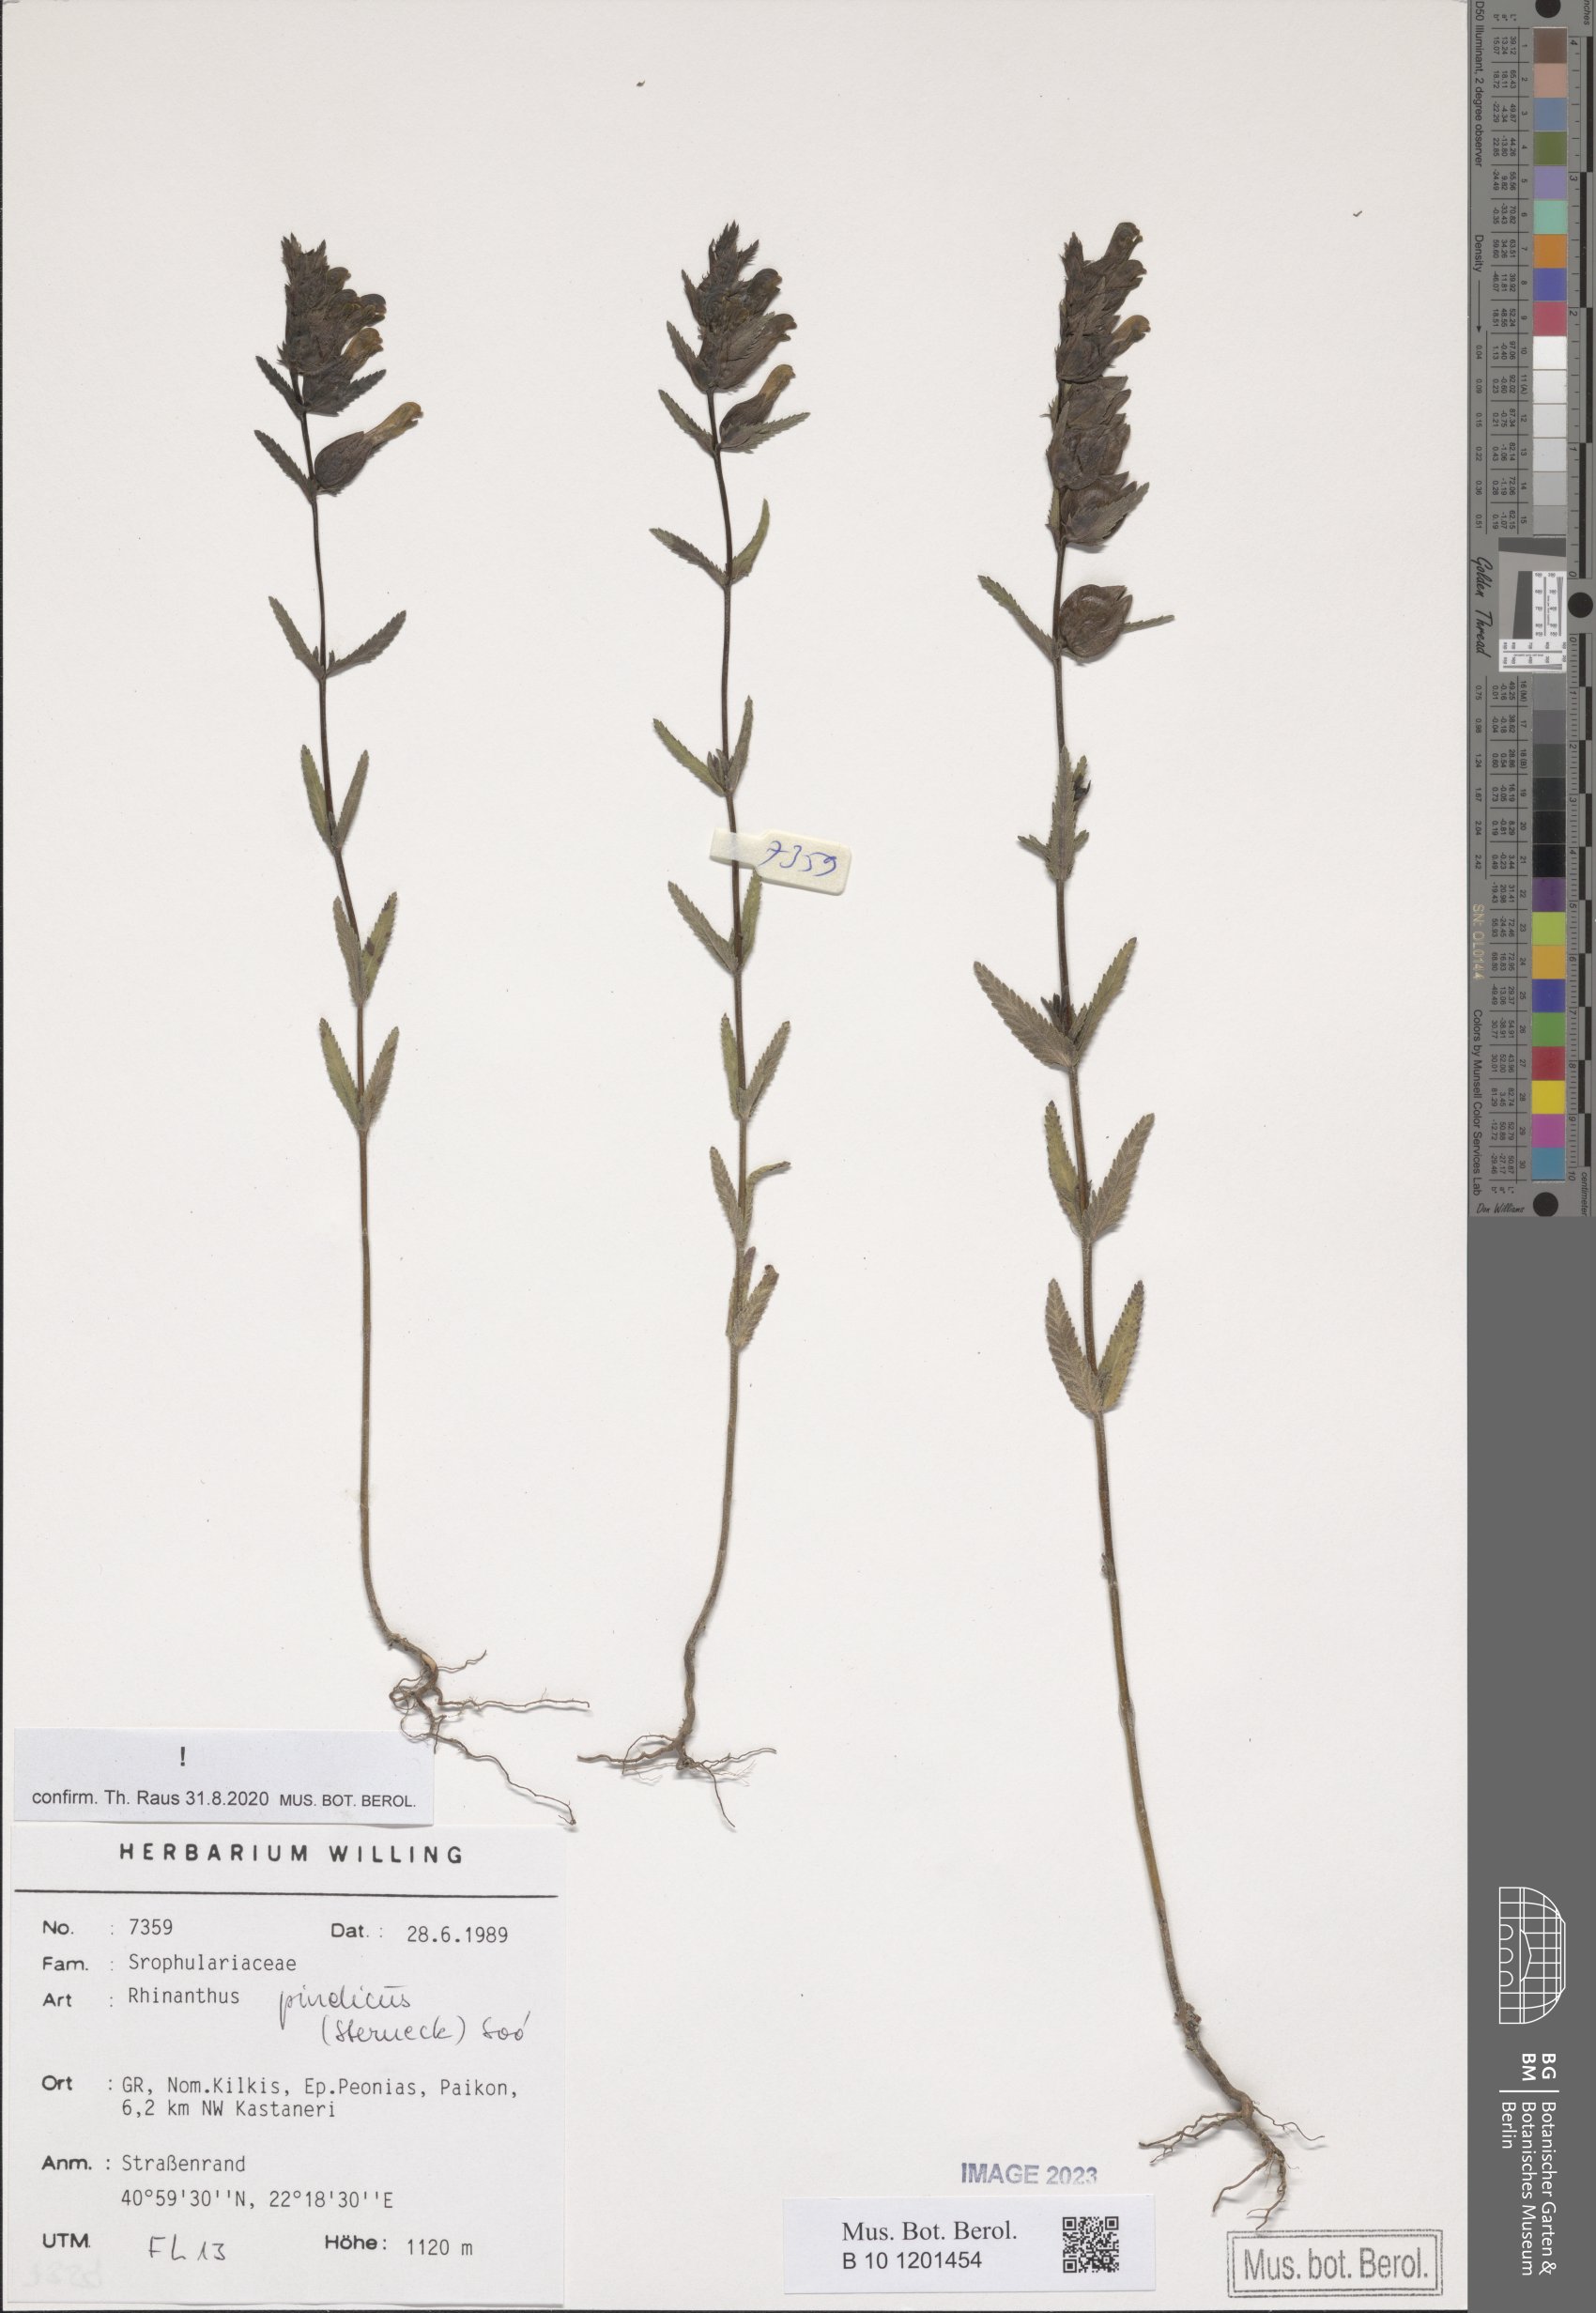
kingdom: Plantae
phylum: Tracheophyta
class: Magnoliopsida
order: Lamiales
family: Orobanchaceae
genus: Rhinanthus
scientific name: Rhinanthus pindicus
